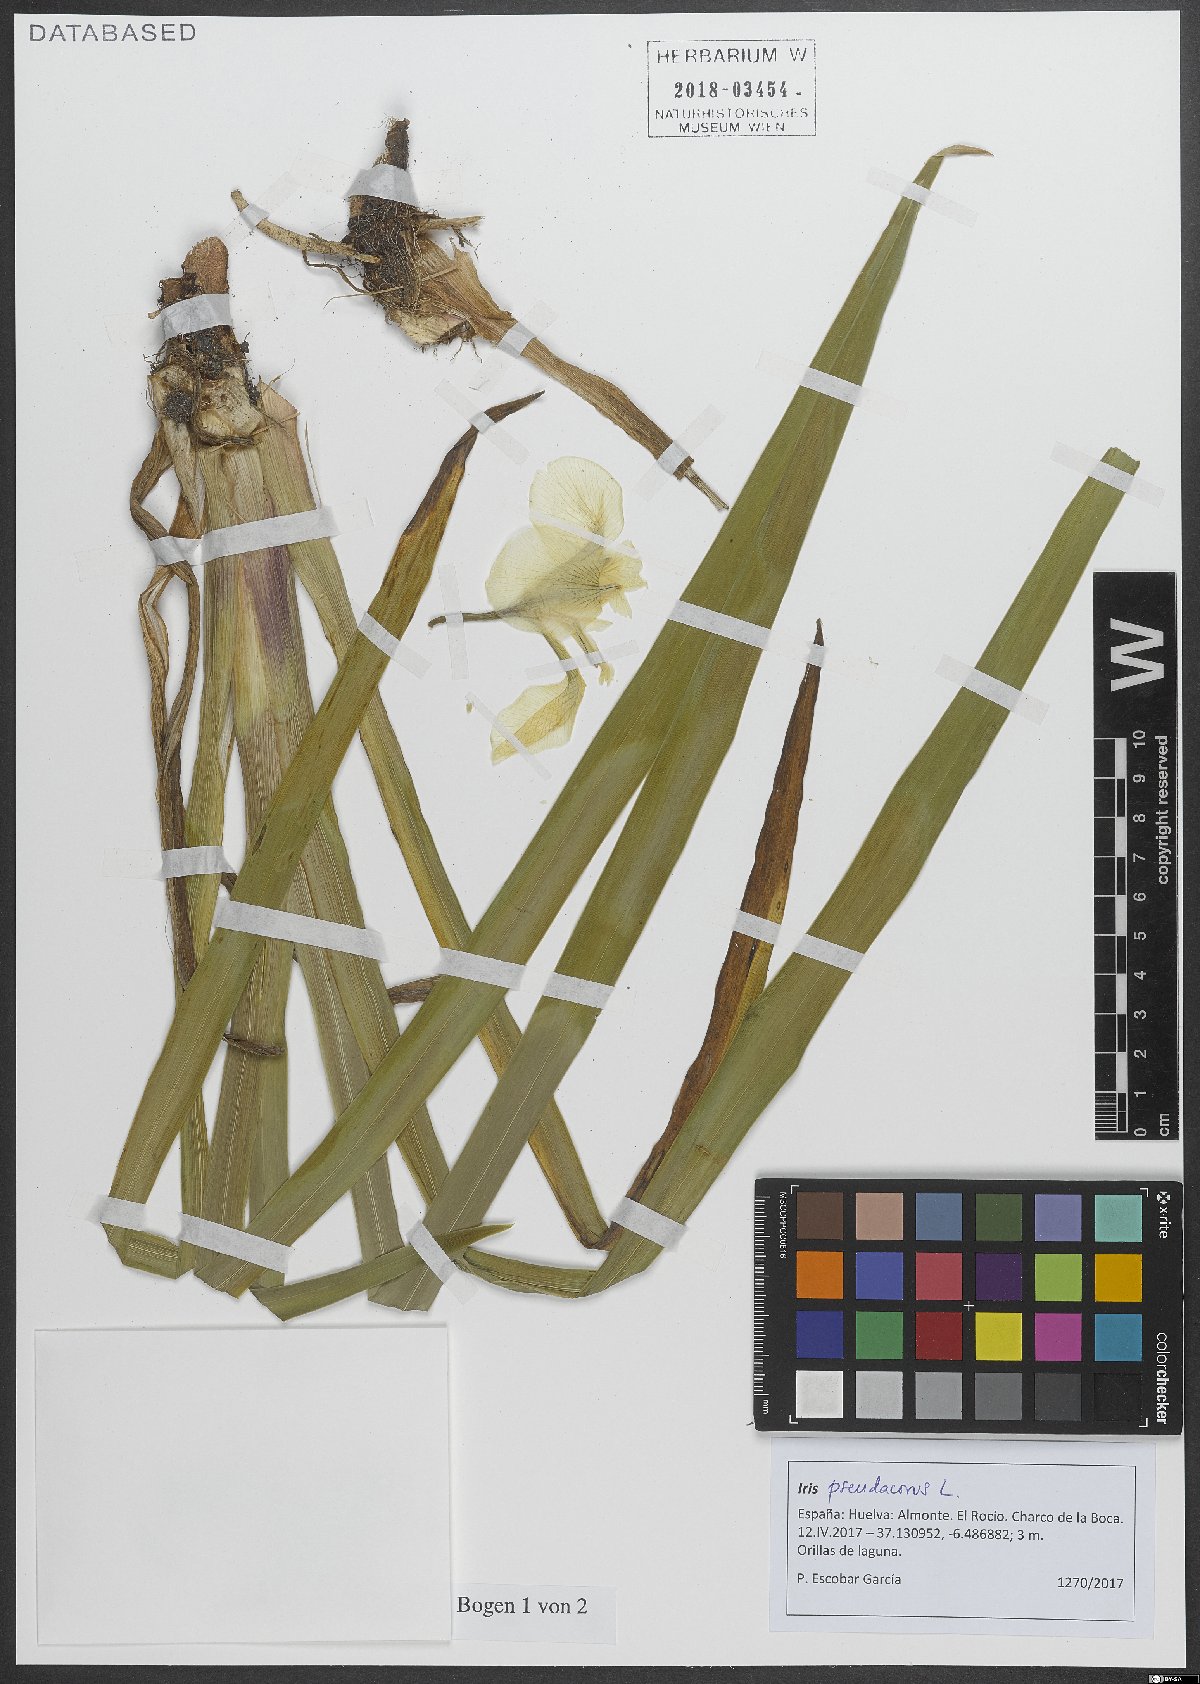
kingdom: Plantae
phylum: Tracheophyta
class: Liliopsida
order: Asparagales
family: Iridaceae
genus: Iris
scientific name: Iris pseudacorus
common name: Yellow flag
